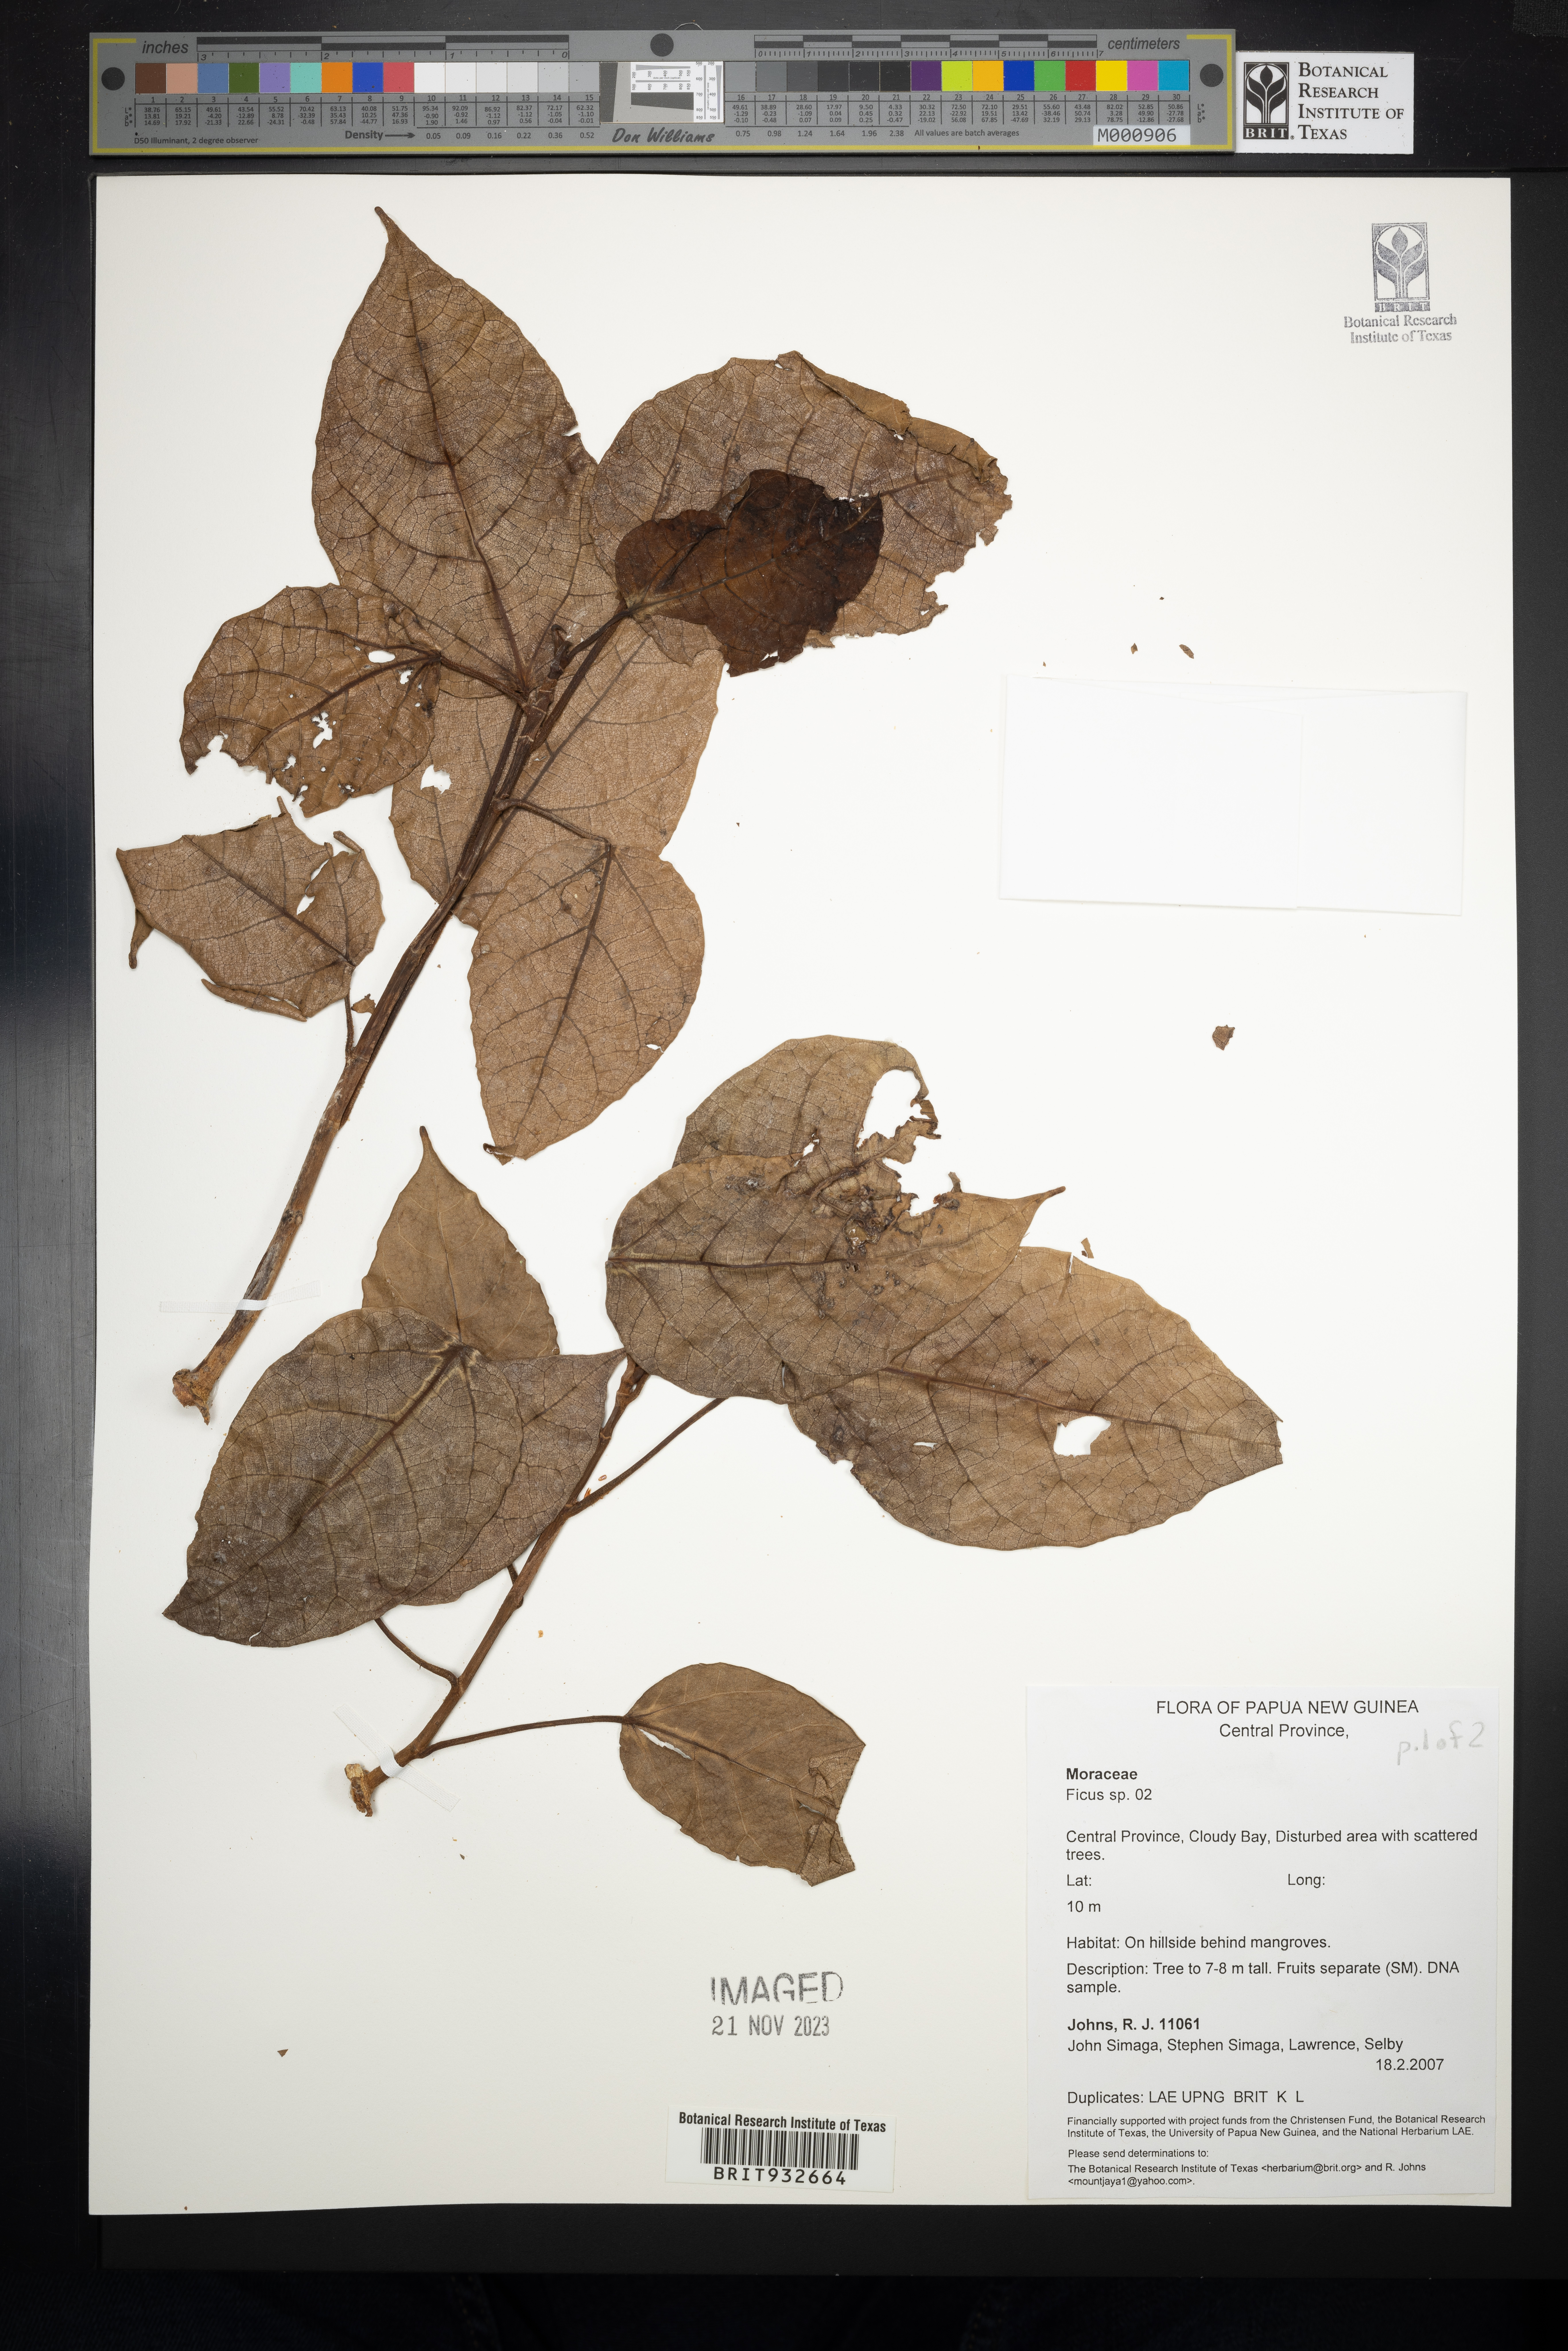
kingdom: Plantae
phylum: Tracheophyta
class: Magnoliopsida
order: Rosales
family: Moraceae
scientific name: Moraceae
